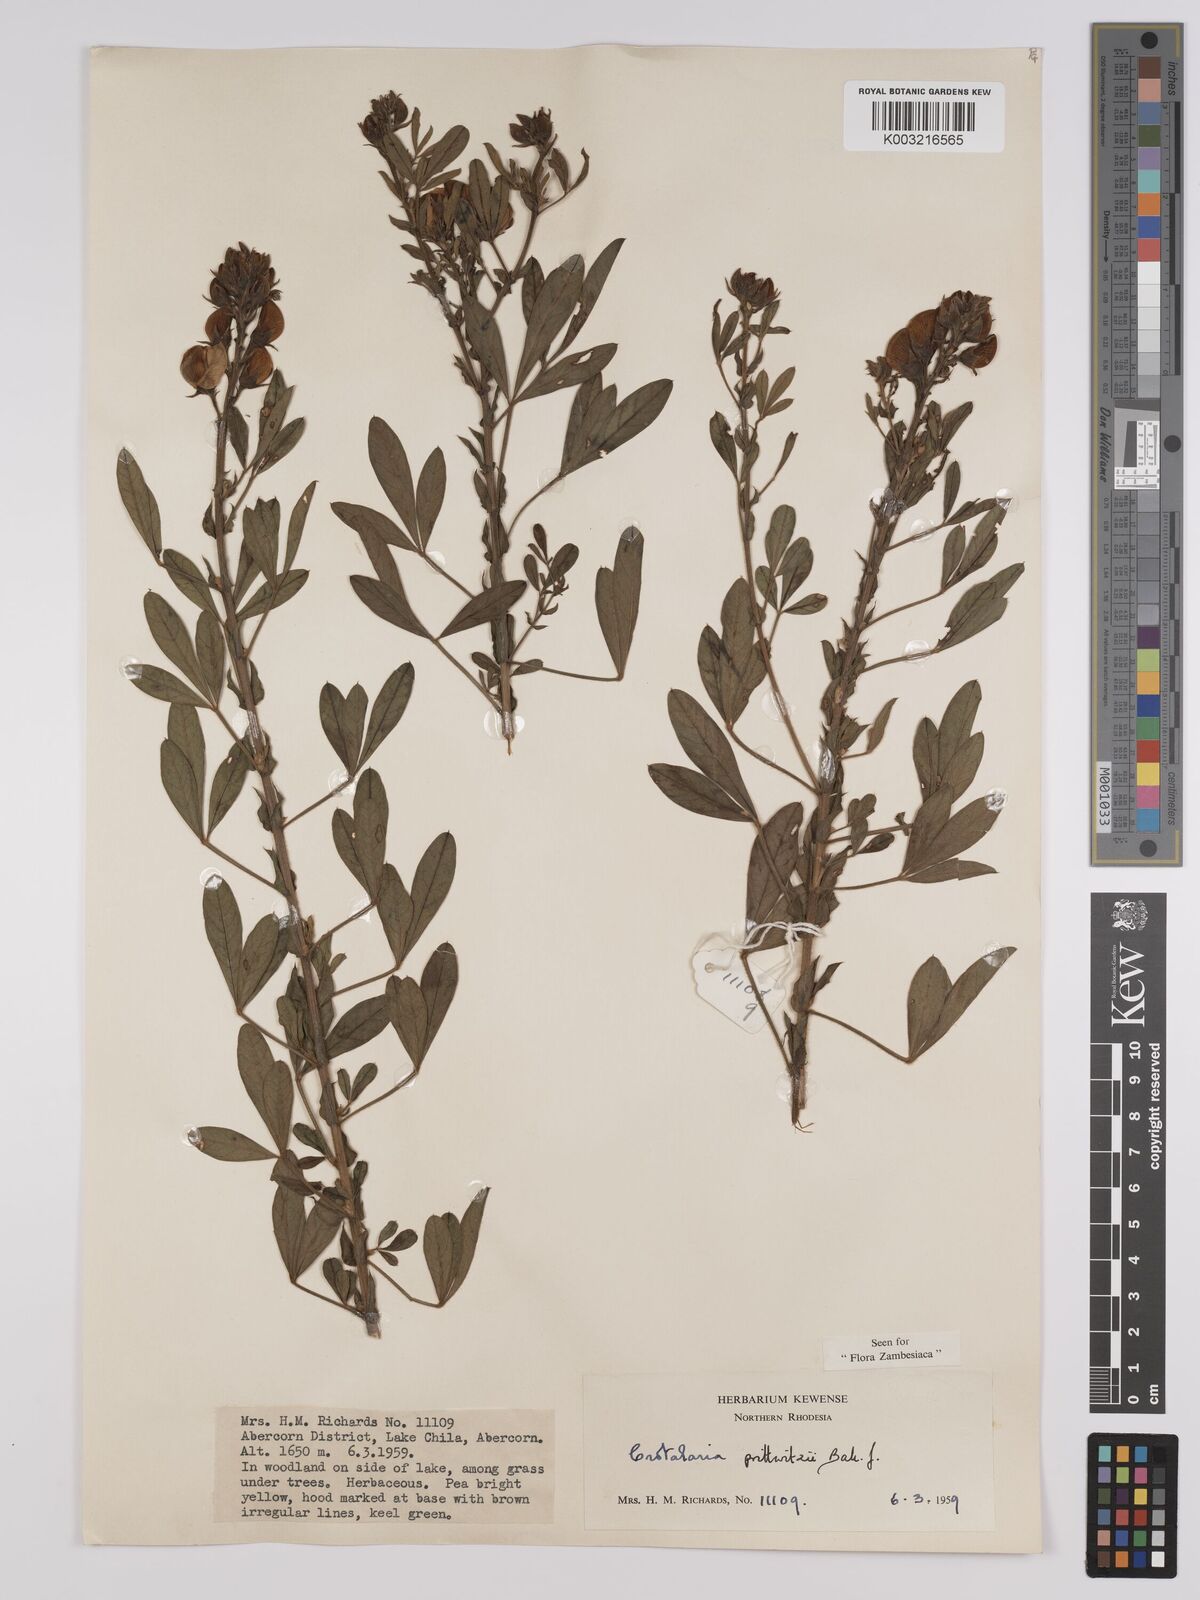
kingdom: Plantae
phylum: Tracheophyta
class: Magnoliopsida
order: Fabales
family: Fabaceae
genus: Crotalaria
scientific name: Crotalaria prittwitzii
